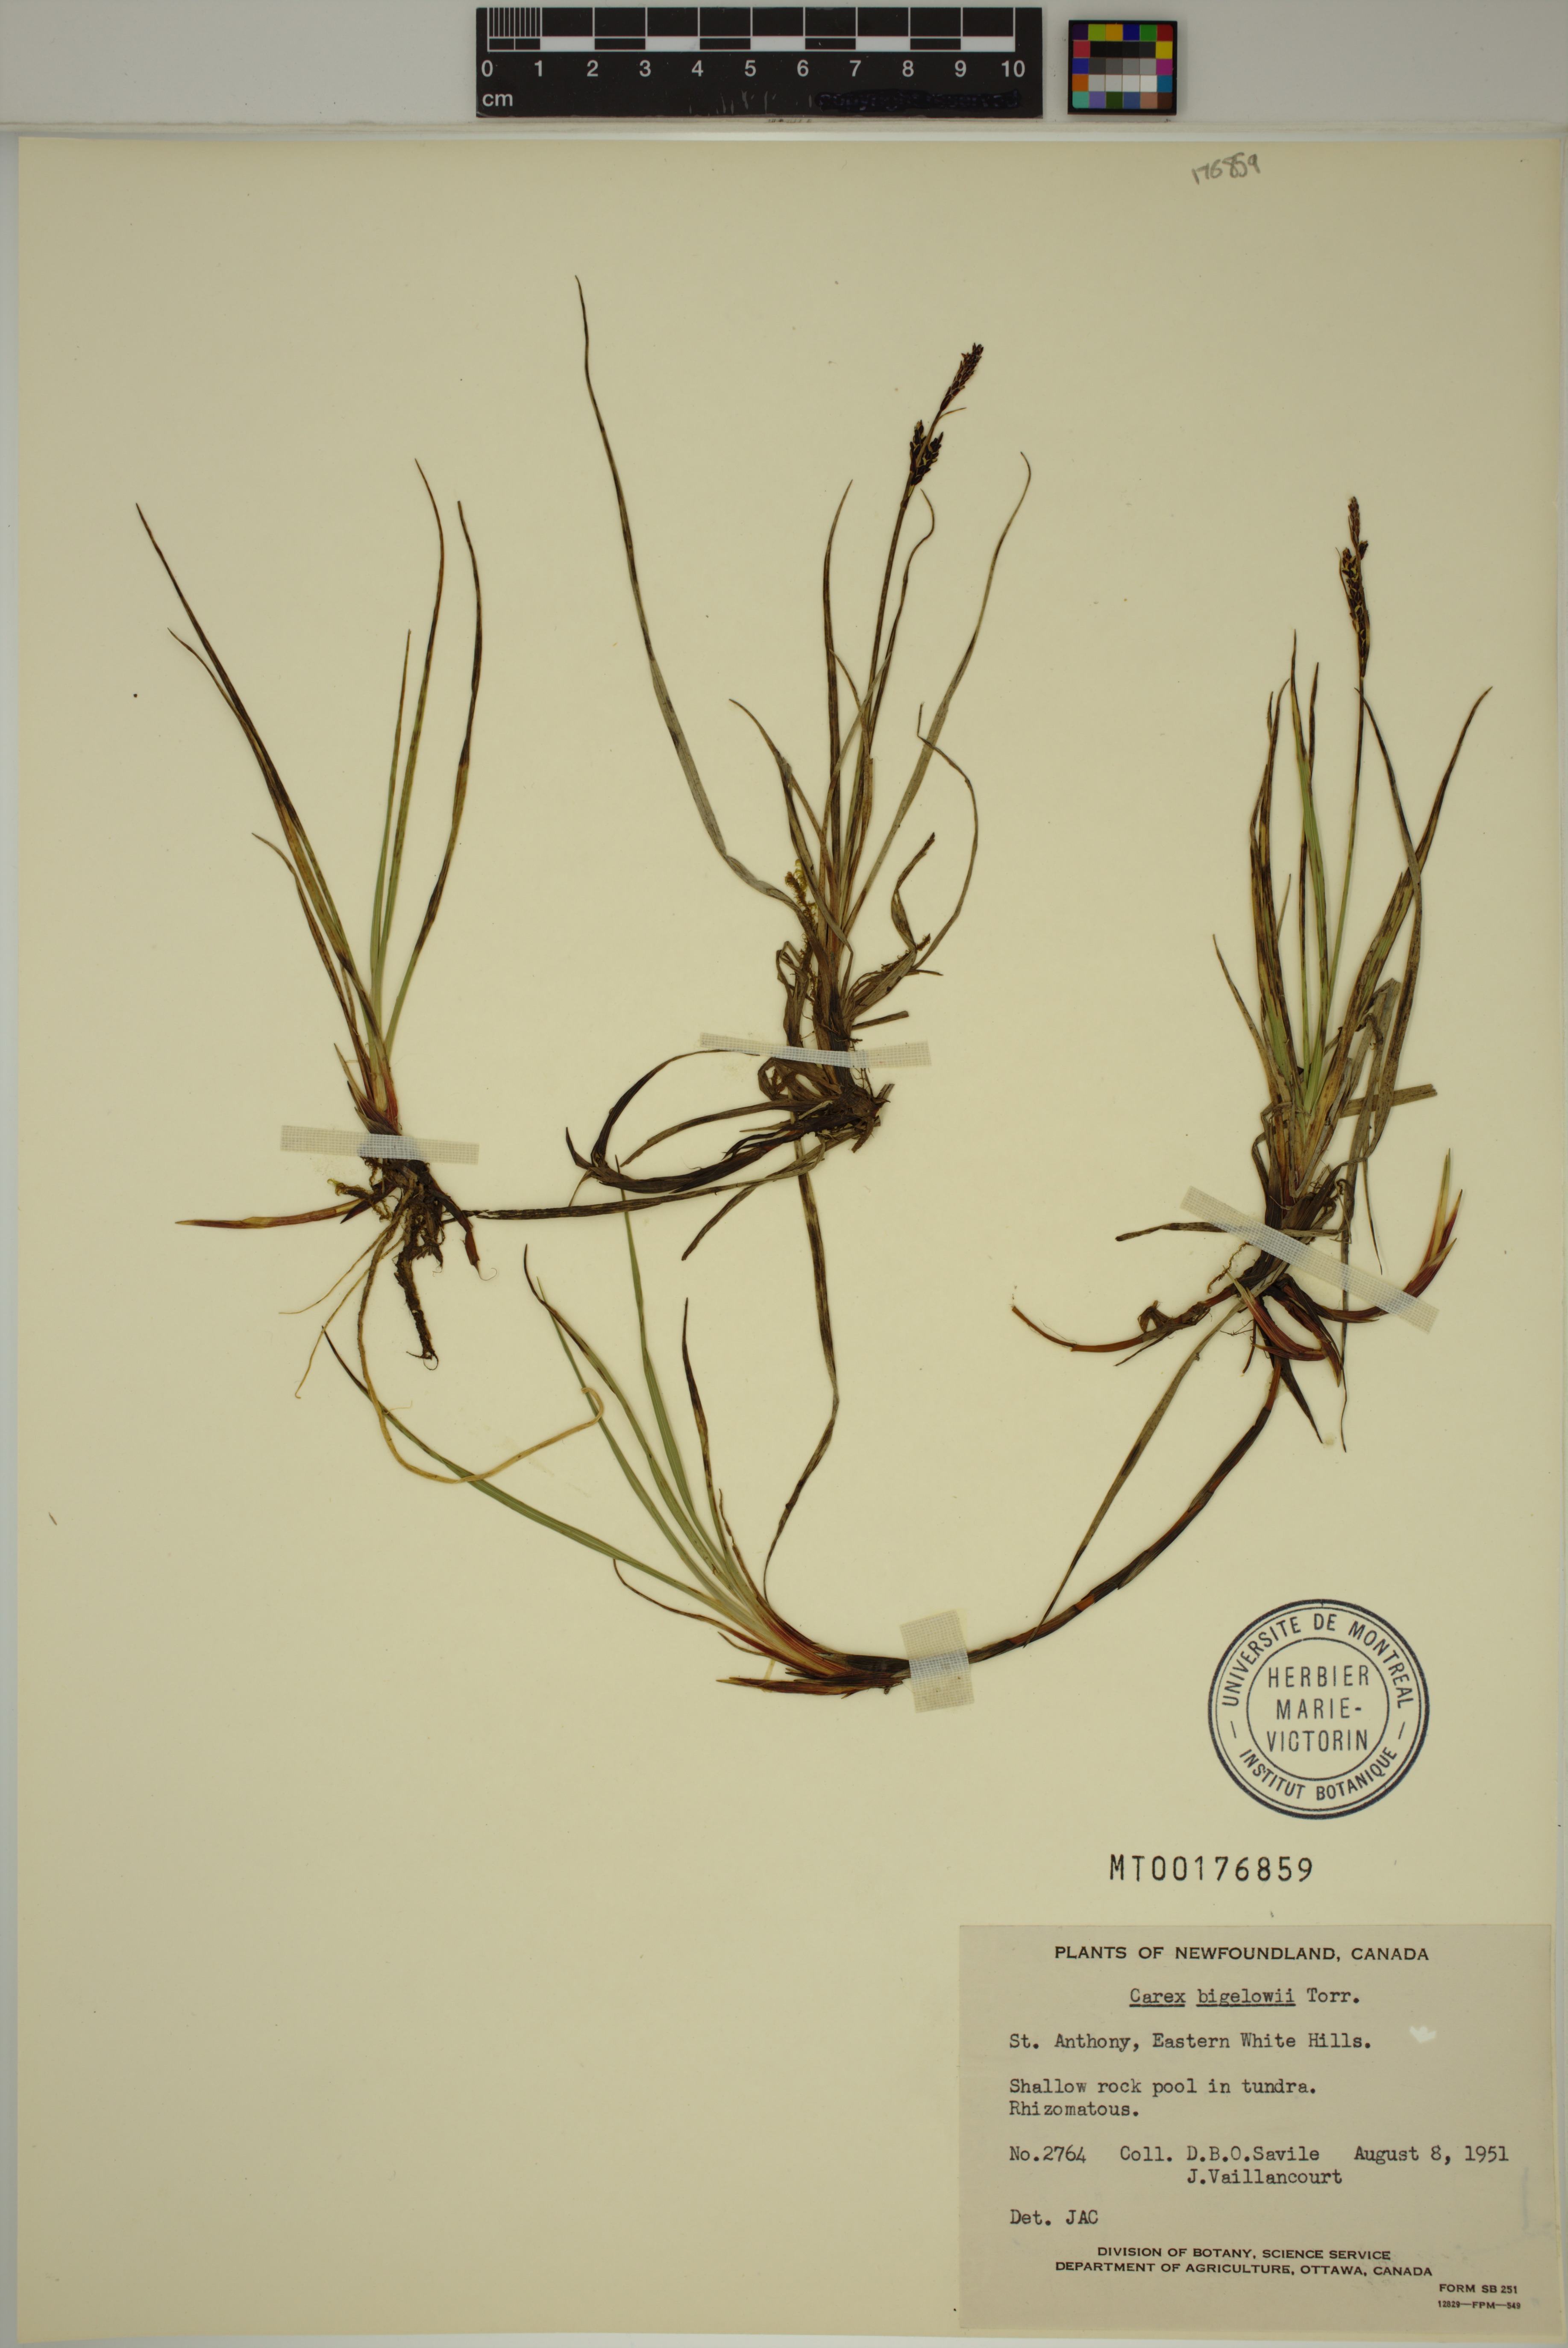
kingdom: Plantae
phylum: Tracheophyta
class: Liliopsida
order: Poales
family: Cyperaceae
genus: Carex
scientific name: Carex bigelowii
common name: Stiff sedge
